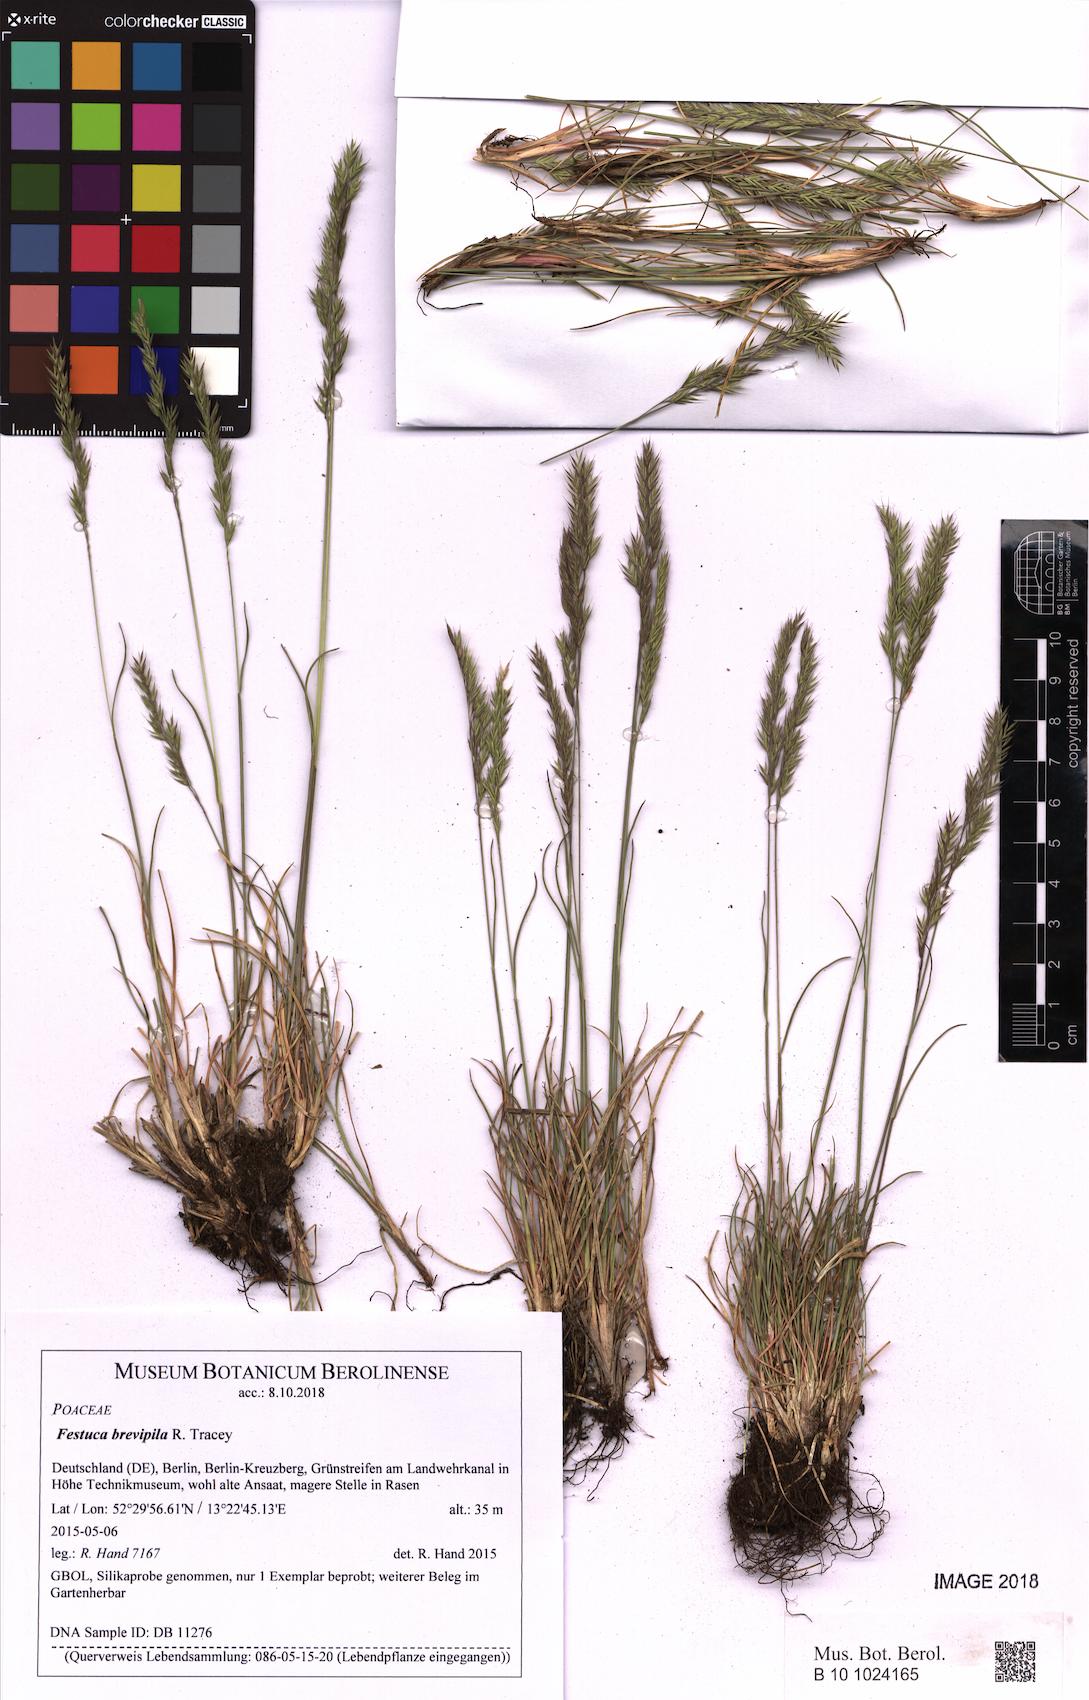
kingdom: Plantae
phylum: Tracheophyta
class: Liliopsida
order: Poales
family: Poaceae
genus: Festuca
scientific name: Festuca trachyphylla
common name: Hard fescue
